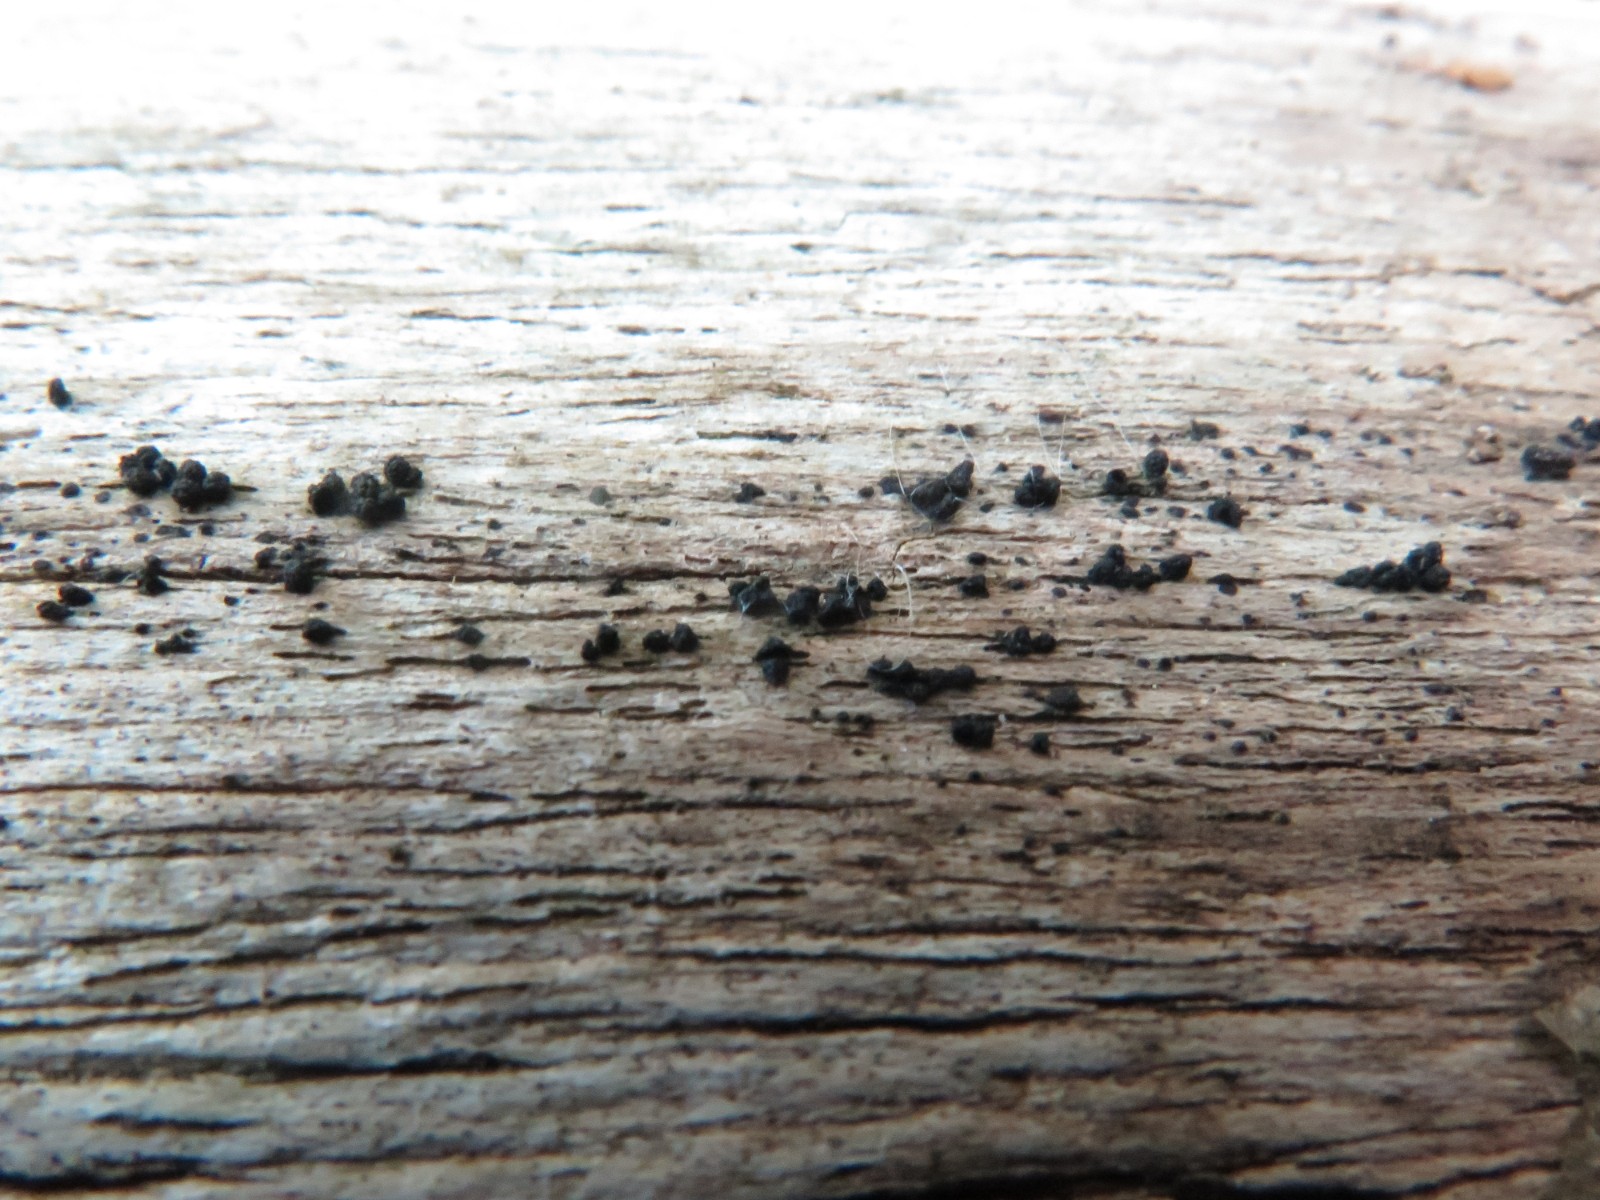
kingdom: Fungi
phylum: Ascomycota
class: Sordariomycetes
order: Coronophorales
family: Bertiaceae
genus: Bertia
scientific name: Bertia moriformis
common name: almindelig morbærkerne
